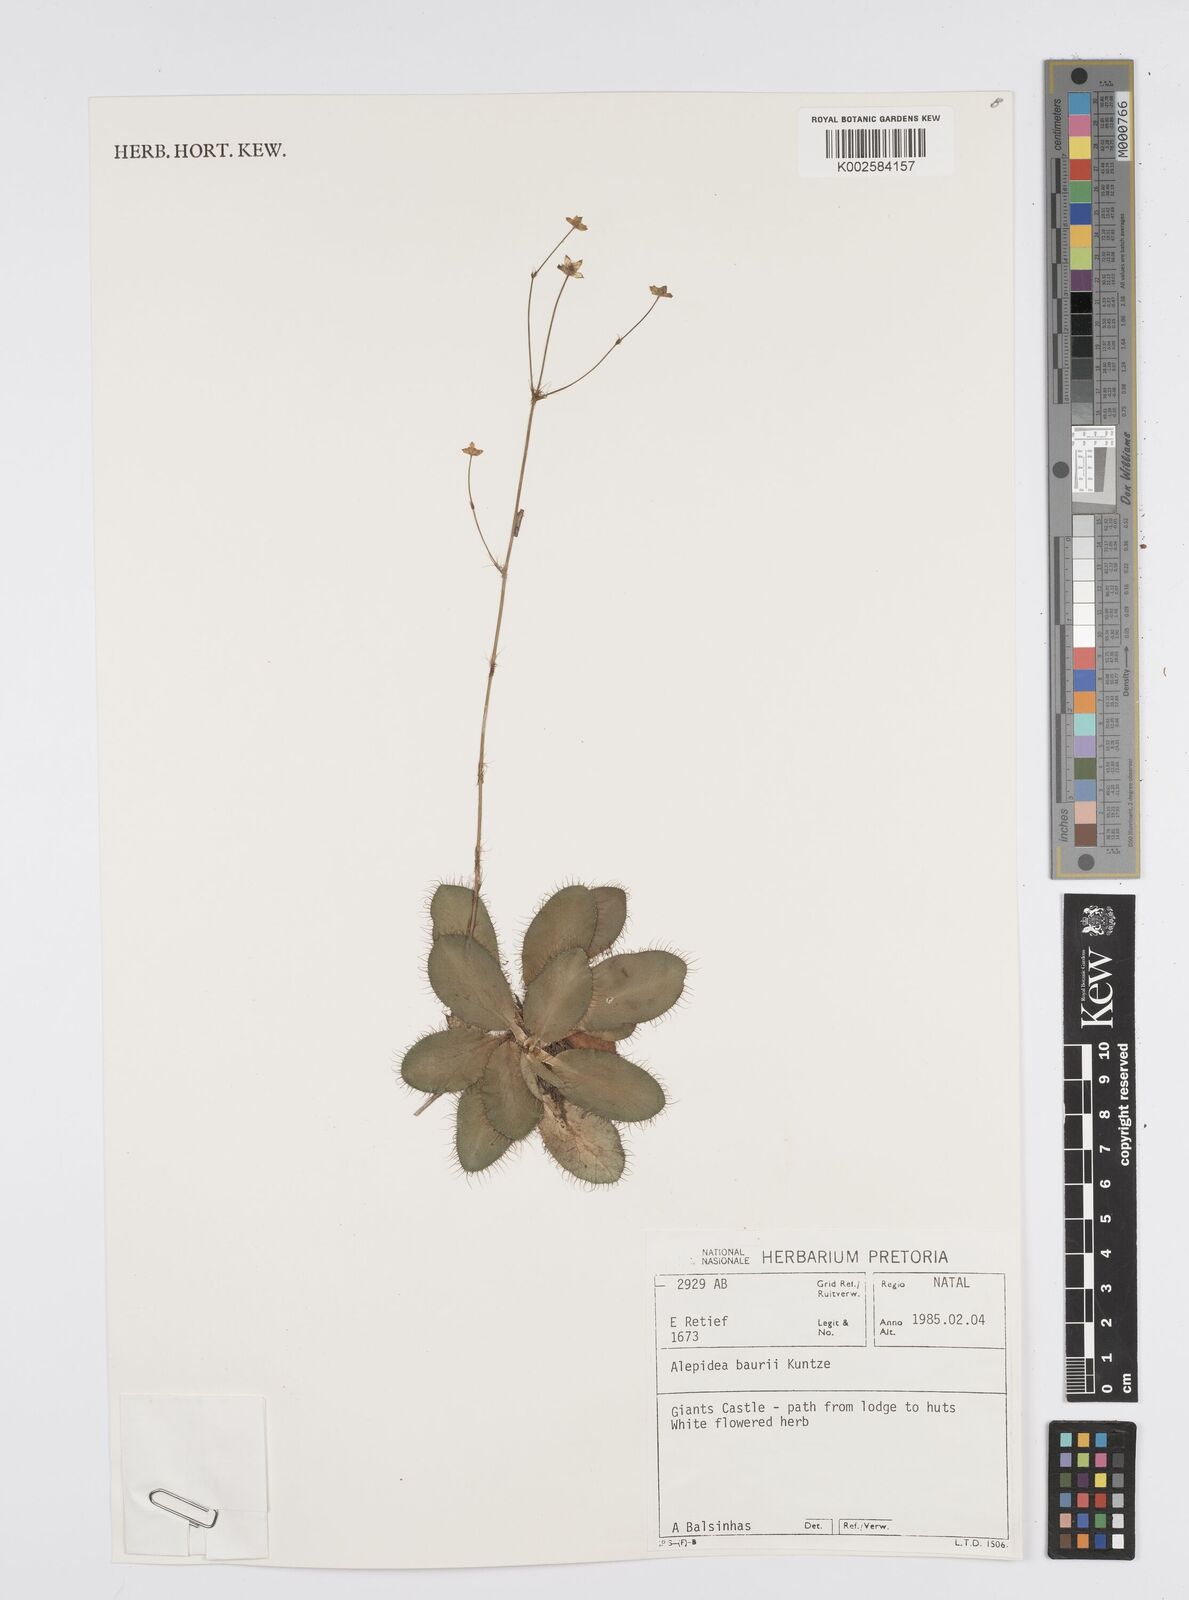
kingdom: Plantae
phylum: Tracheophyta
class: Magnoliopsida
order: Apiales
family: Apiaceae
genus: Alepidea
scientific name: Alepidea natalensis
